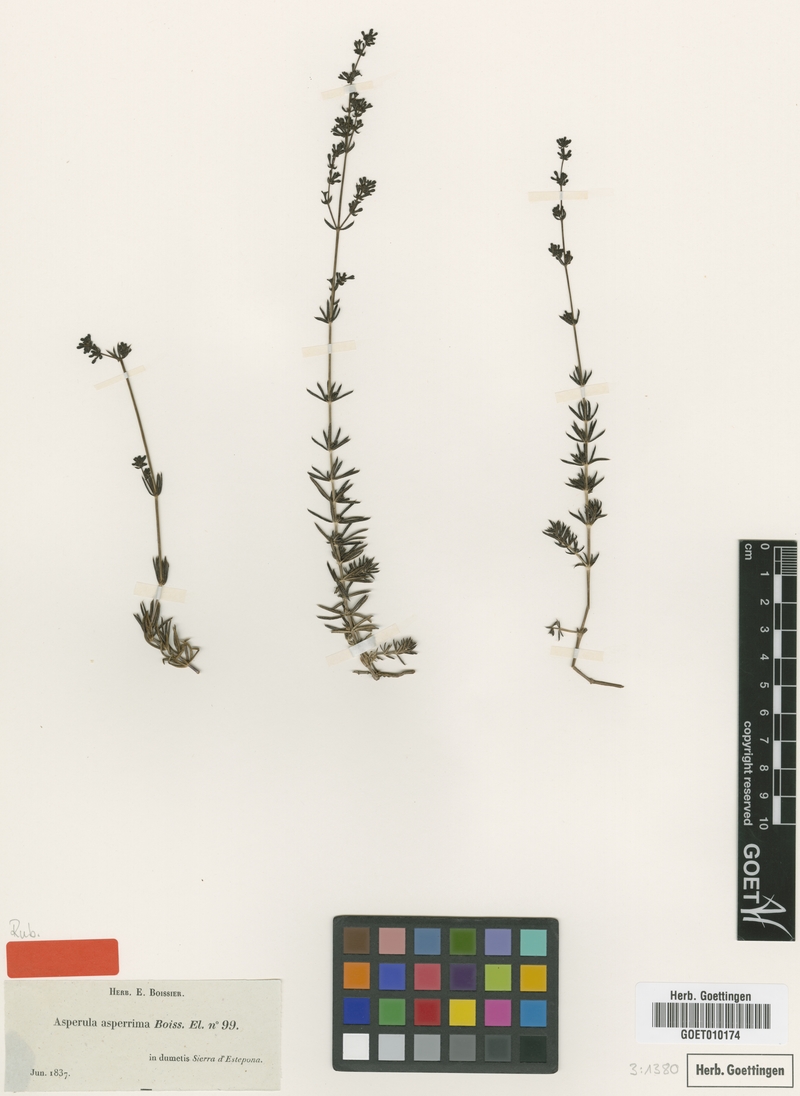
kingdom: Plantae
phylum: Tracheophyta
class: Magnoliopsida
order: Gentianales
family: Rubiaceae
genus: Galium
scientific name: Galium pierredmondii
